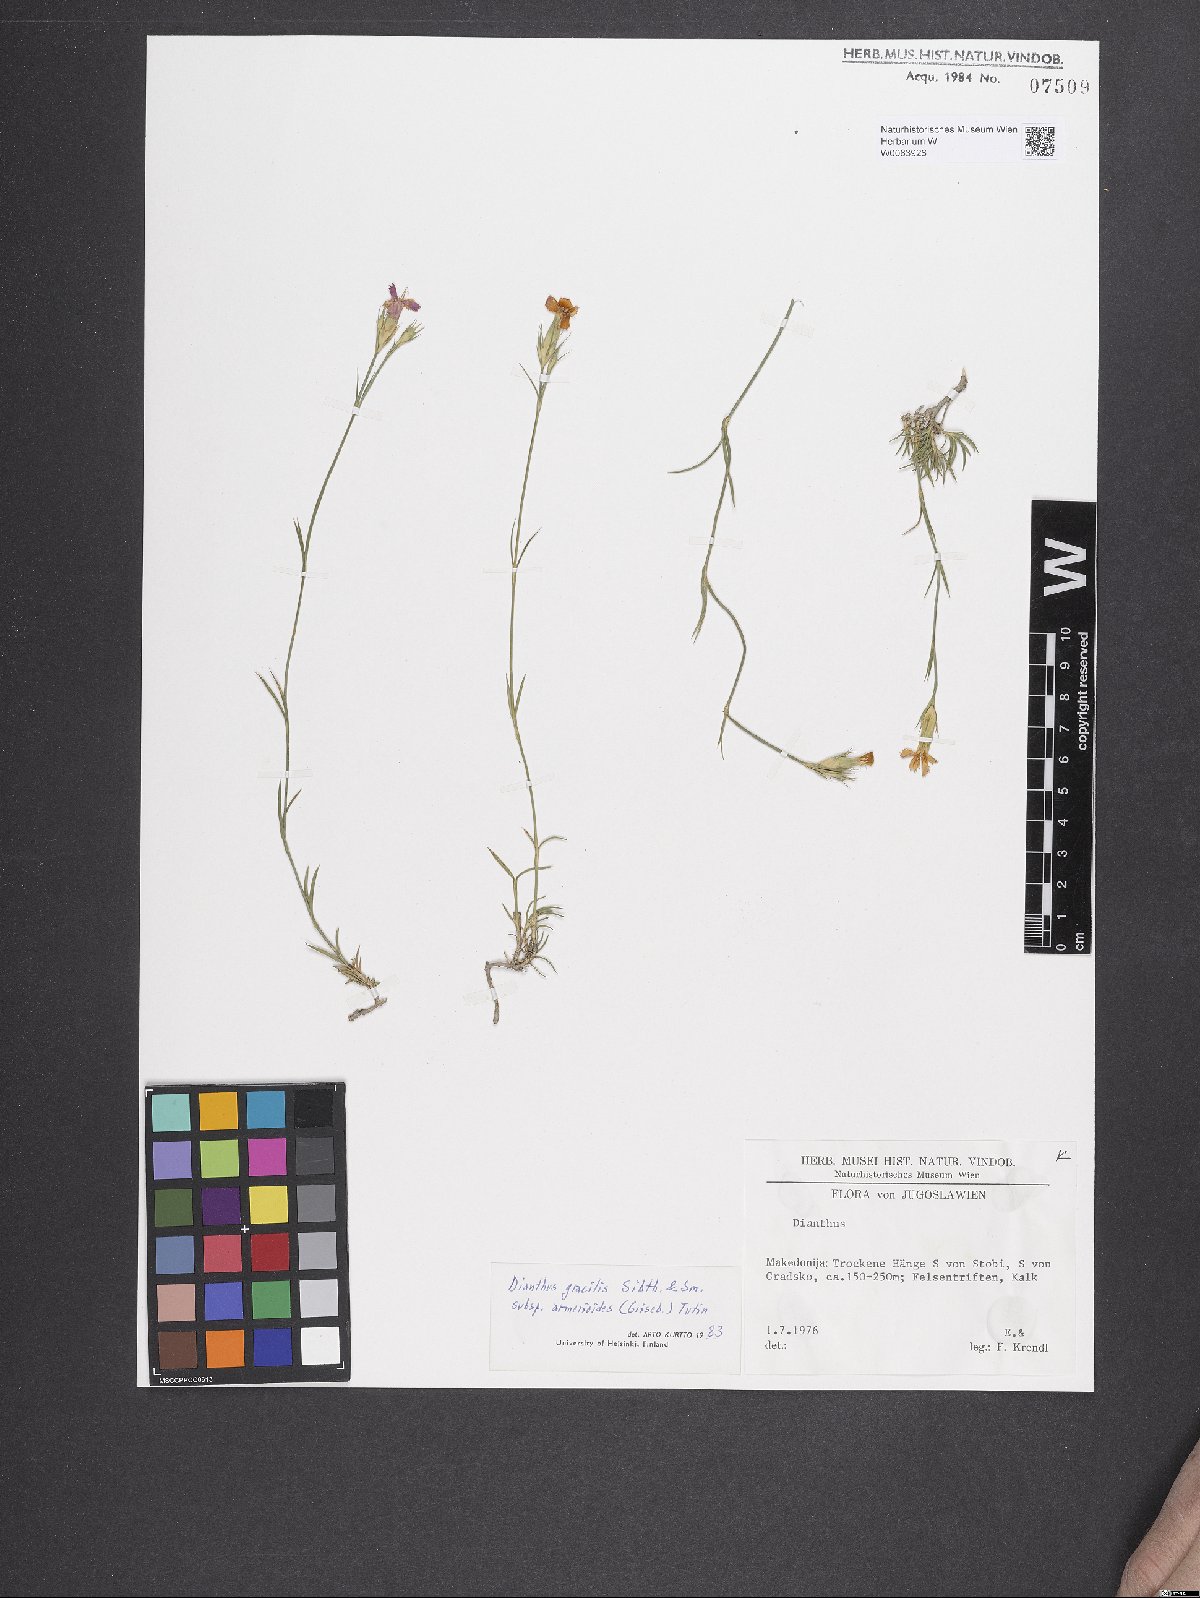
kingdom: Plantae
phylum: Tracheophyta
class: Magnoliopsida
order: Caryophyllales
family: Caryophyllaceae
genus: Dianthus
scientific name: Dianthus gracilis
